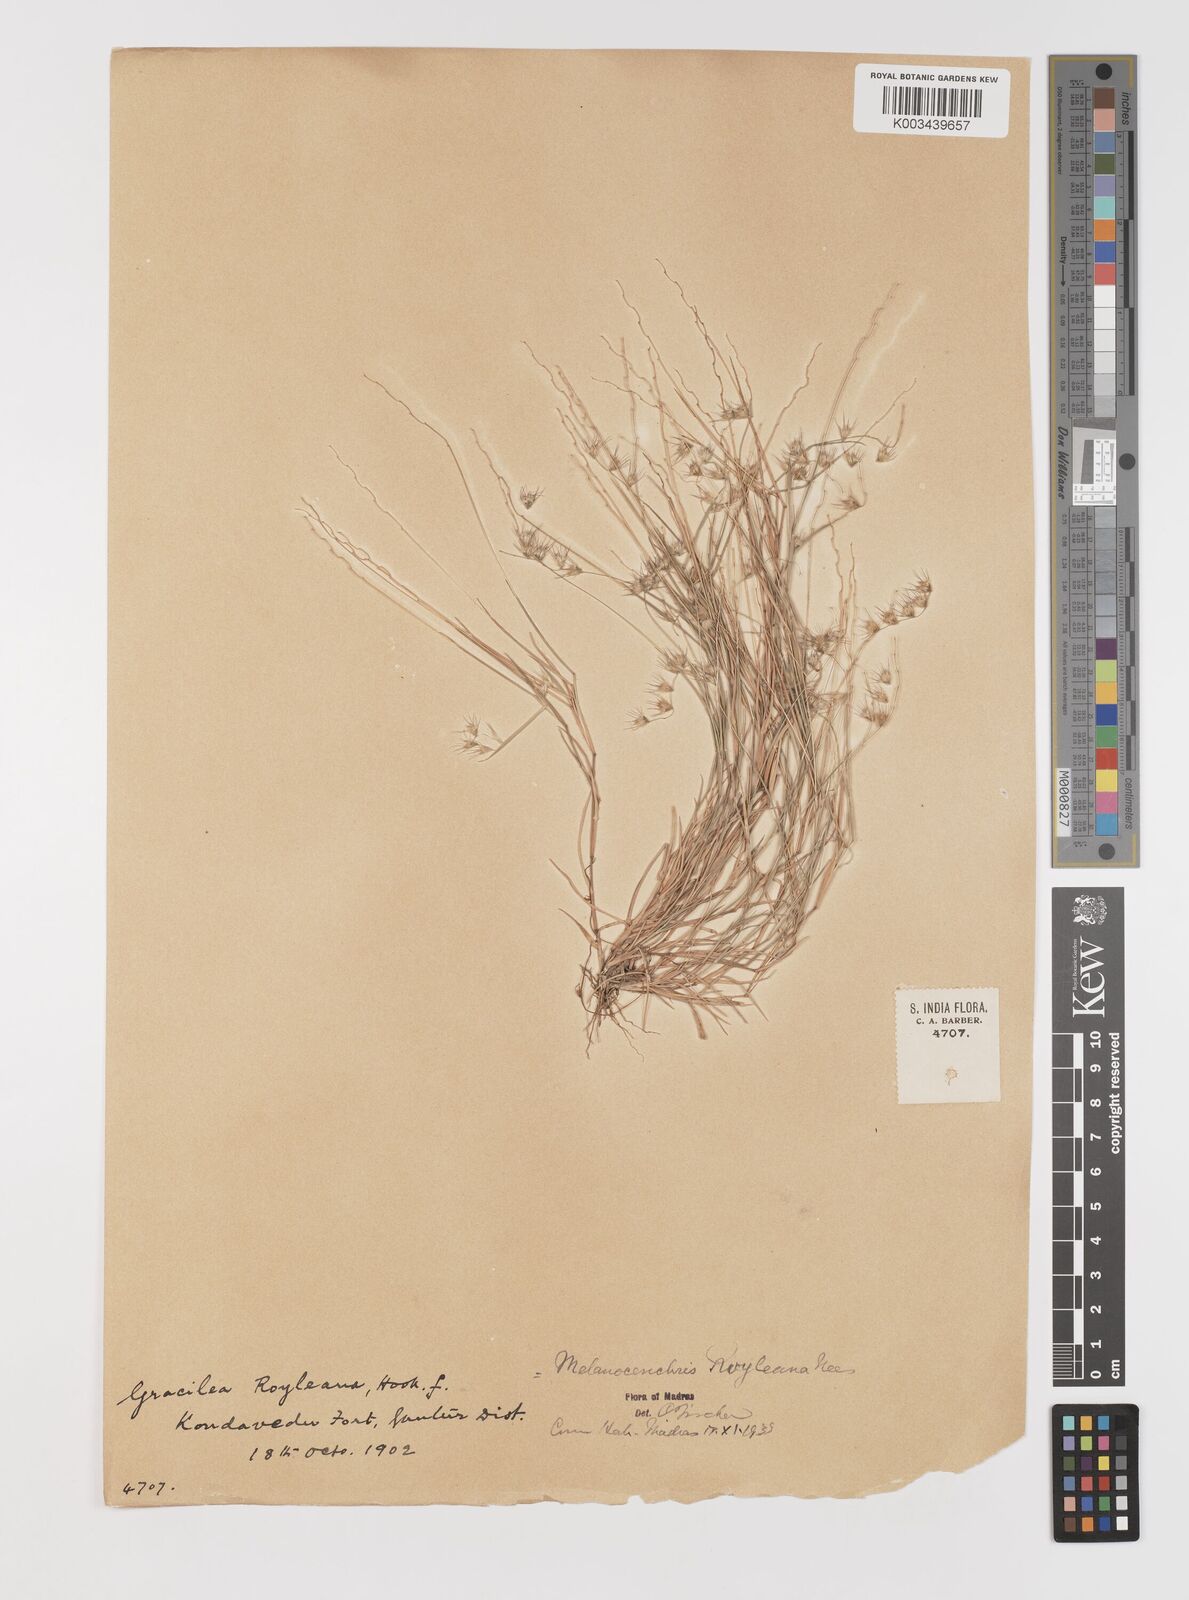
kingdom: Plantae
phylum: Tracheophyta
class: Liliopsida
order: Poales
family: Poaceae
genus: Melanocenchris
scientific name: Melanocenchris jacquemontii
